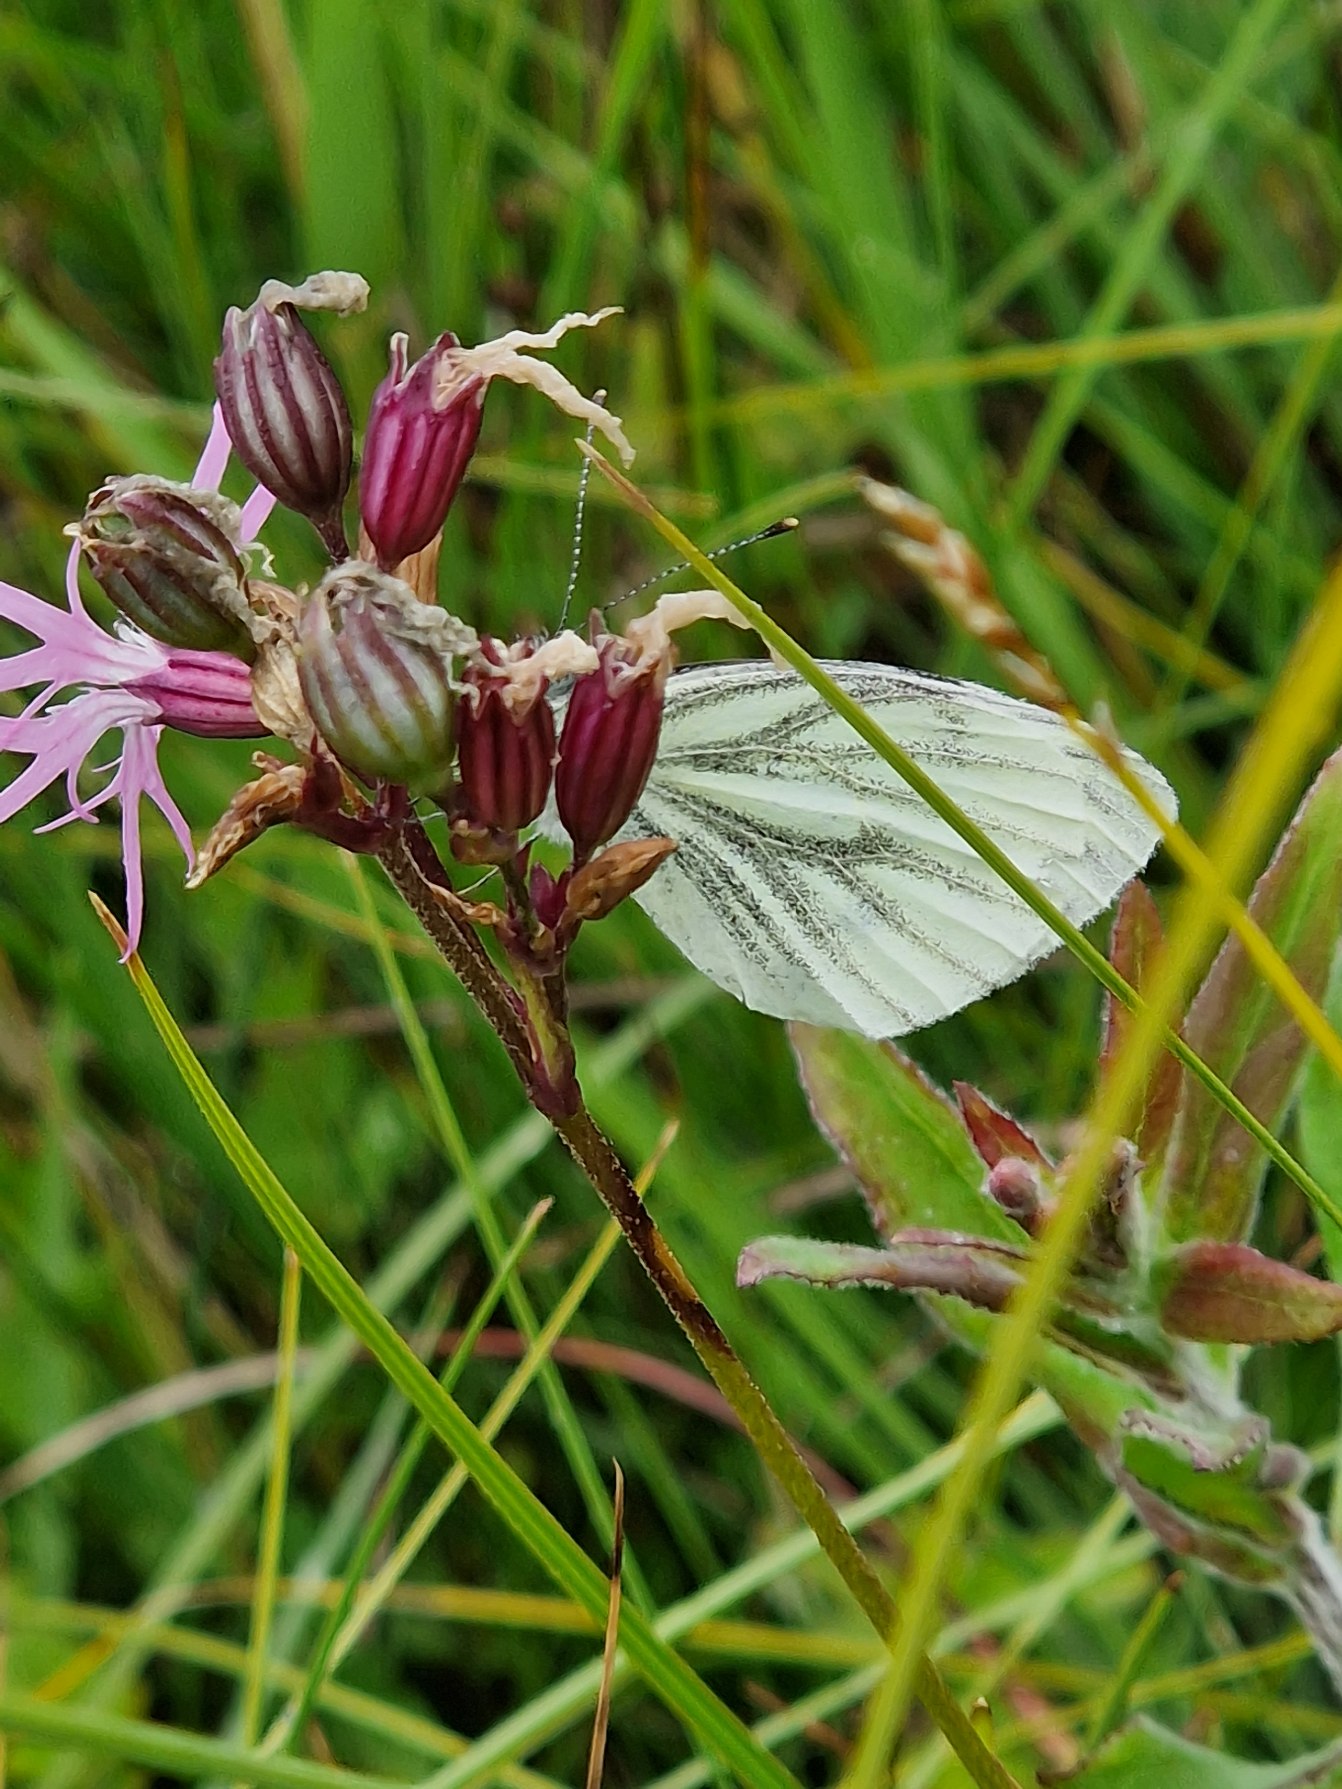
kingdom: Animalia
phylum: Arthropoda
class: Insecta
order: Lepidoptera
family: Pieridae
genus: Pieris
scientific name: Pieris napi
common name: Grønåret kålsommerfugl
